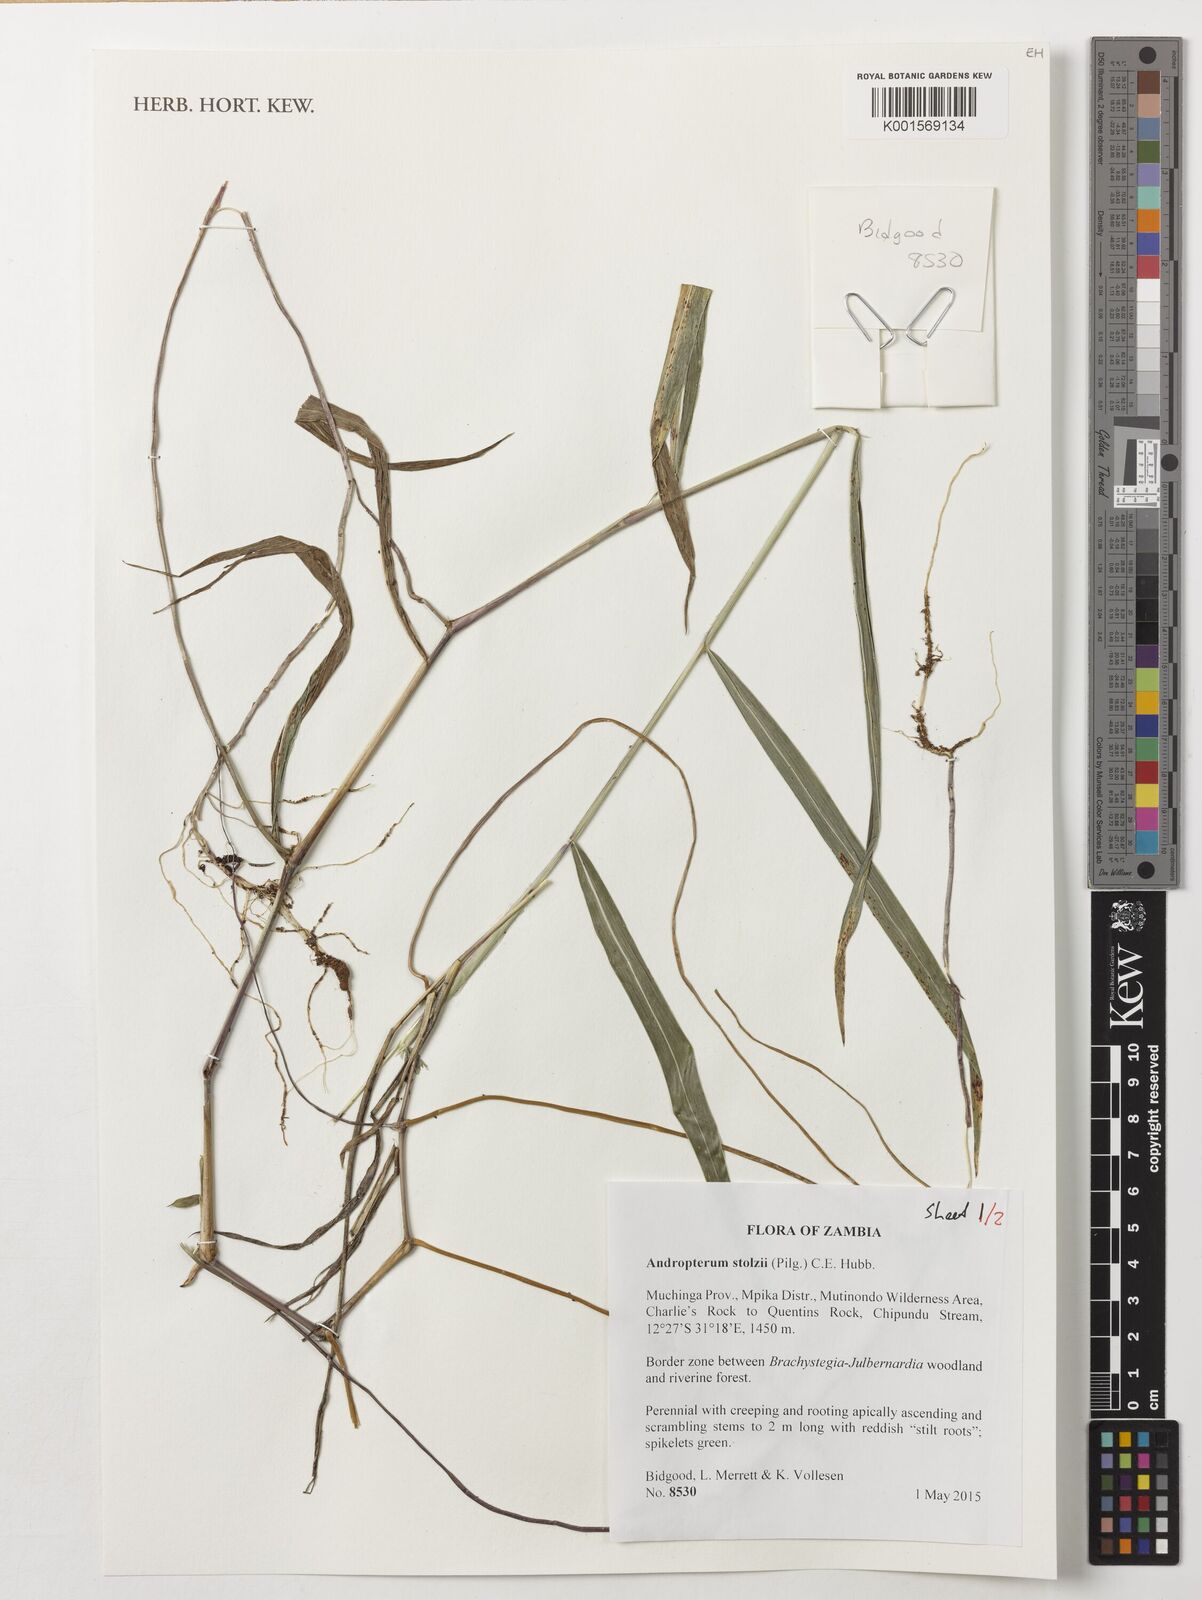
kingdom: Plantae
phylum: Tracheophyta
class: Liliopsida
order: Poales
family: Poaceae
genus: Andropterum
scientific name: Andropterum stolzii
